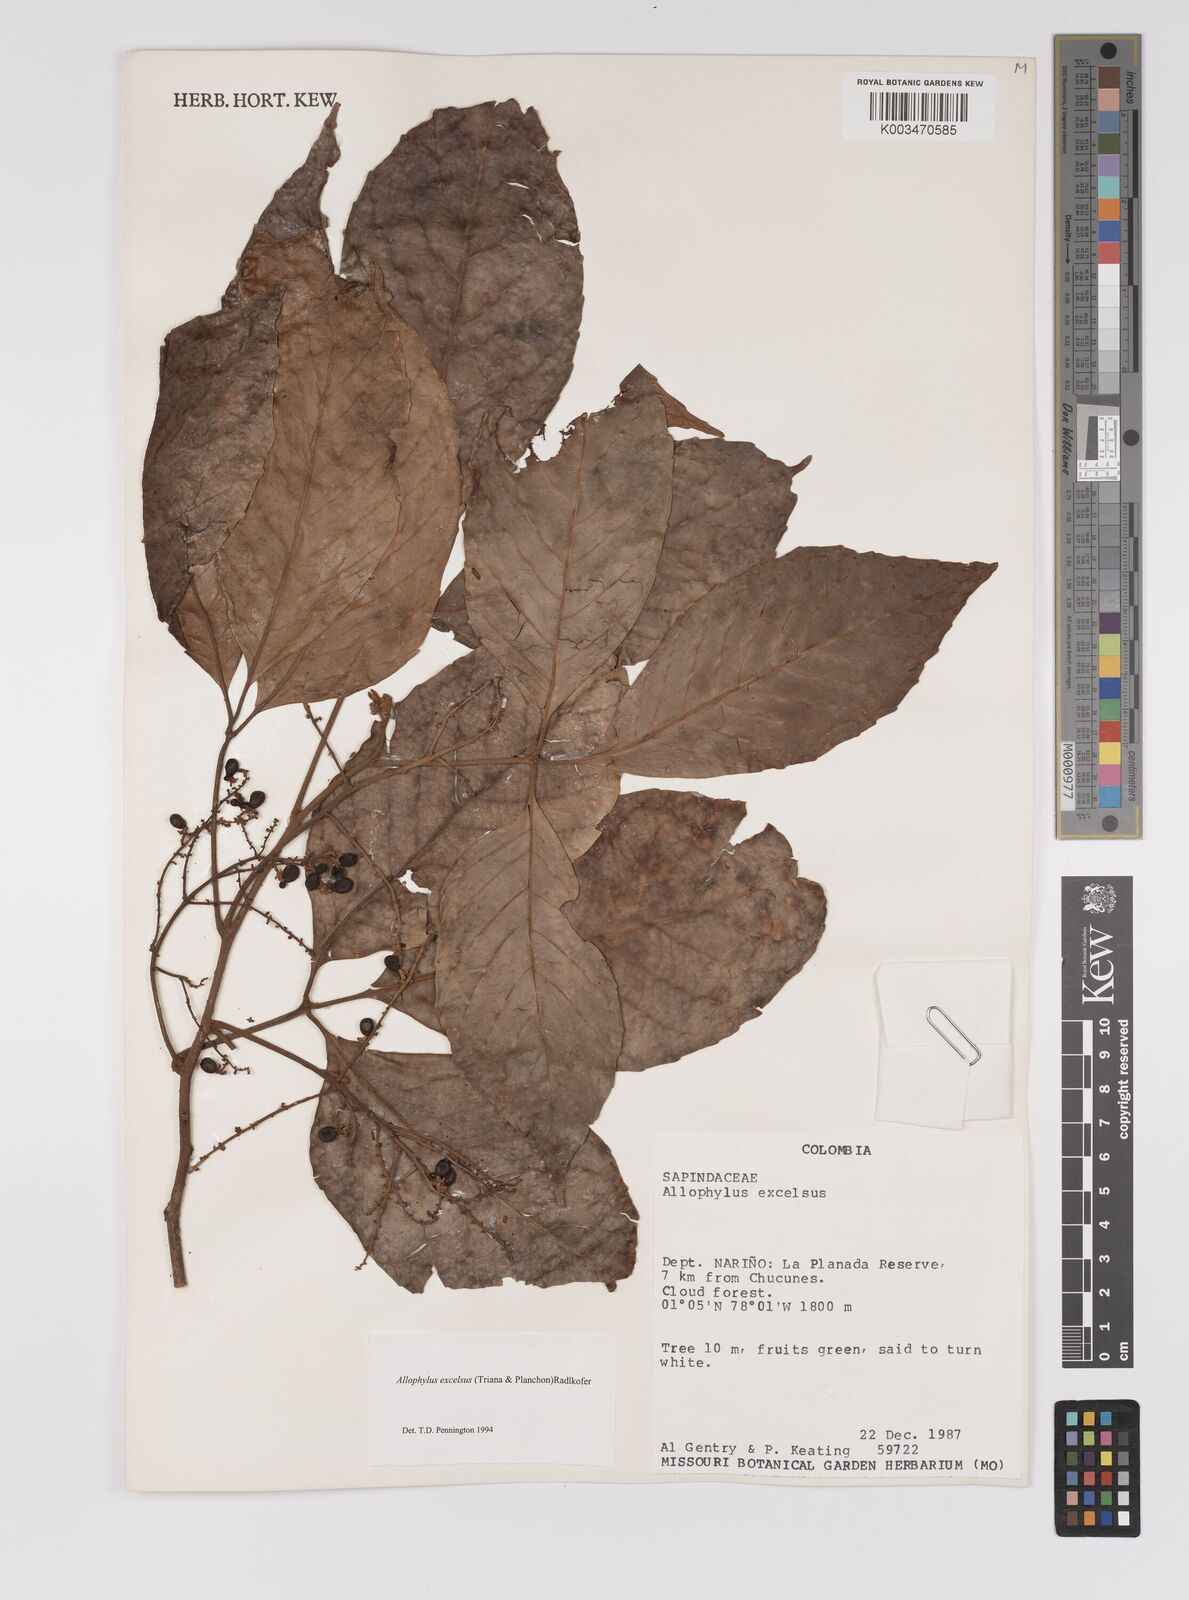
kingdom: Plantae
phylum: Tracheophyta
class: Magnoliopsida
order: Sapindales
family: Sapindaceae
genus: Allophylus
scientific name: Allophylus excelsus
